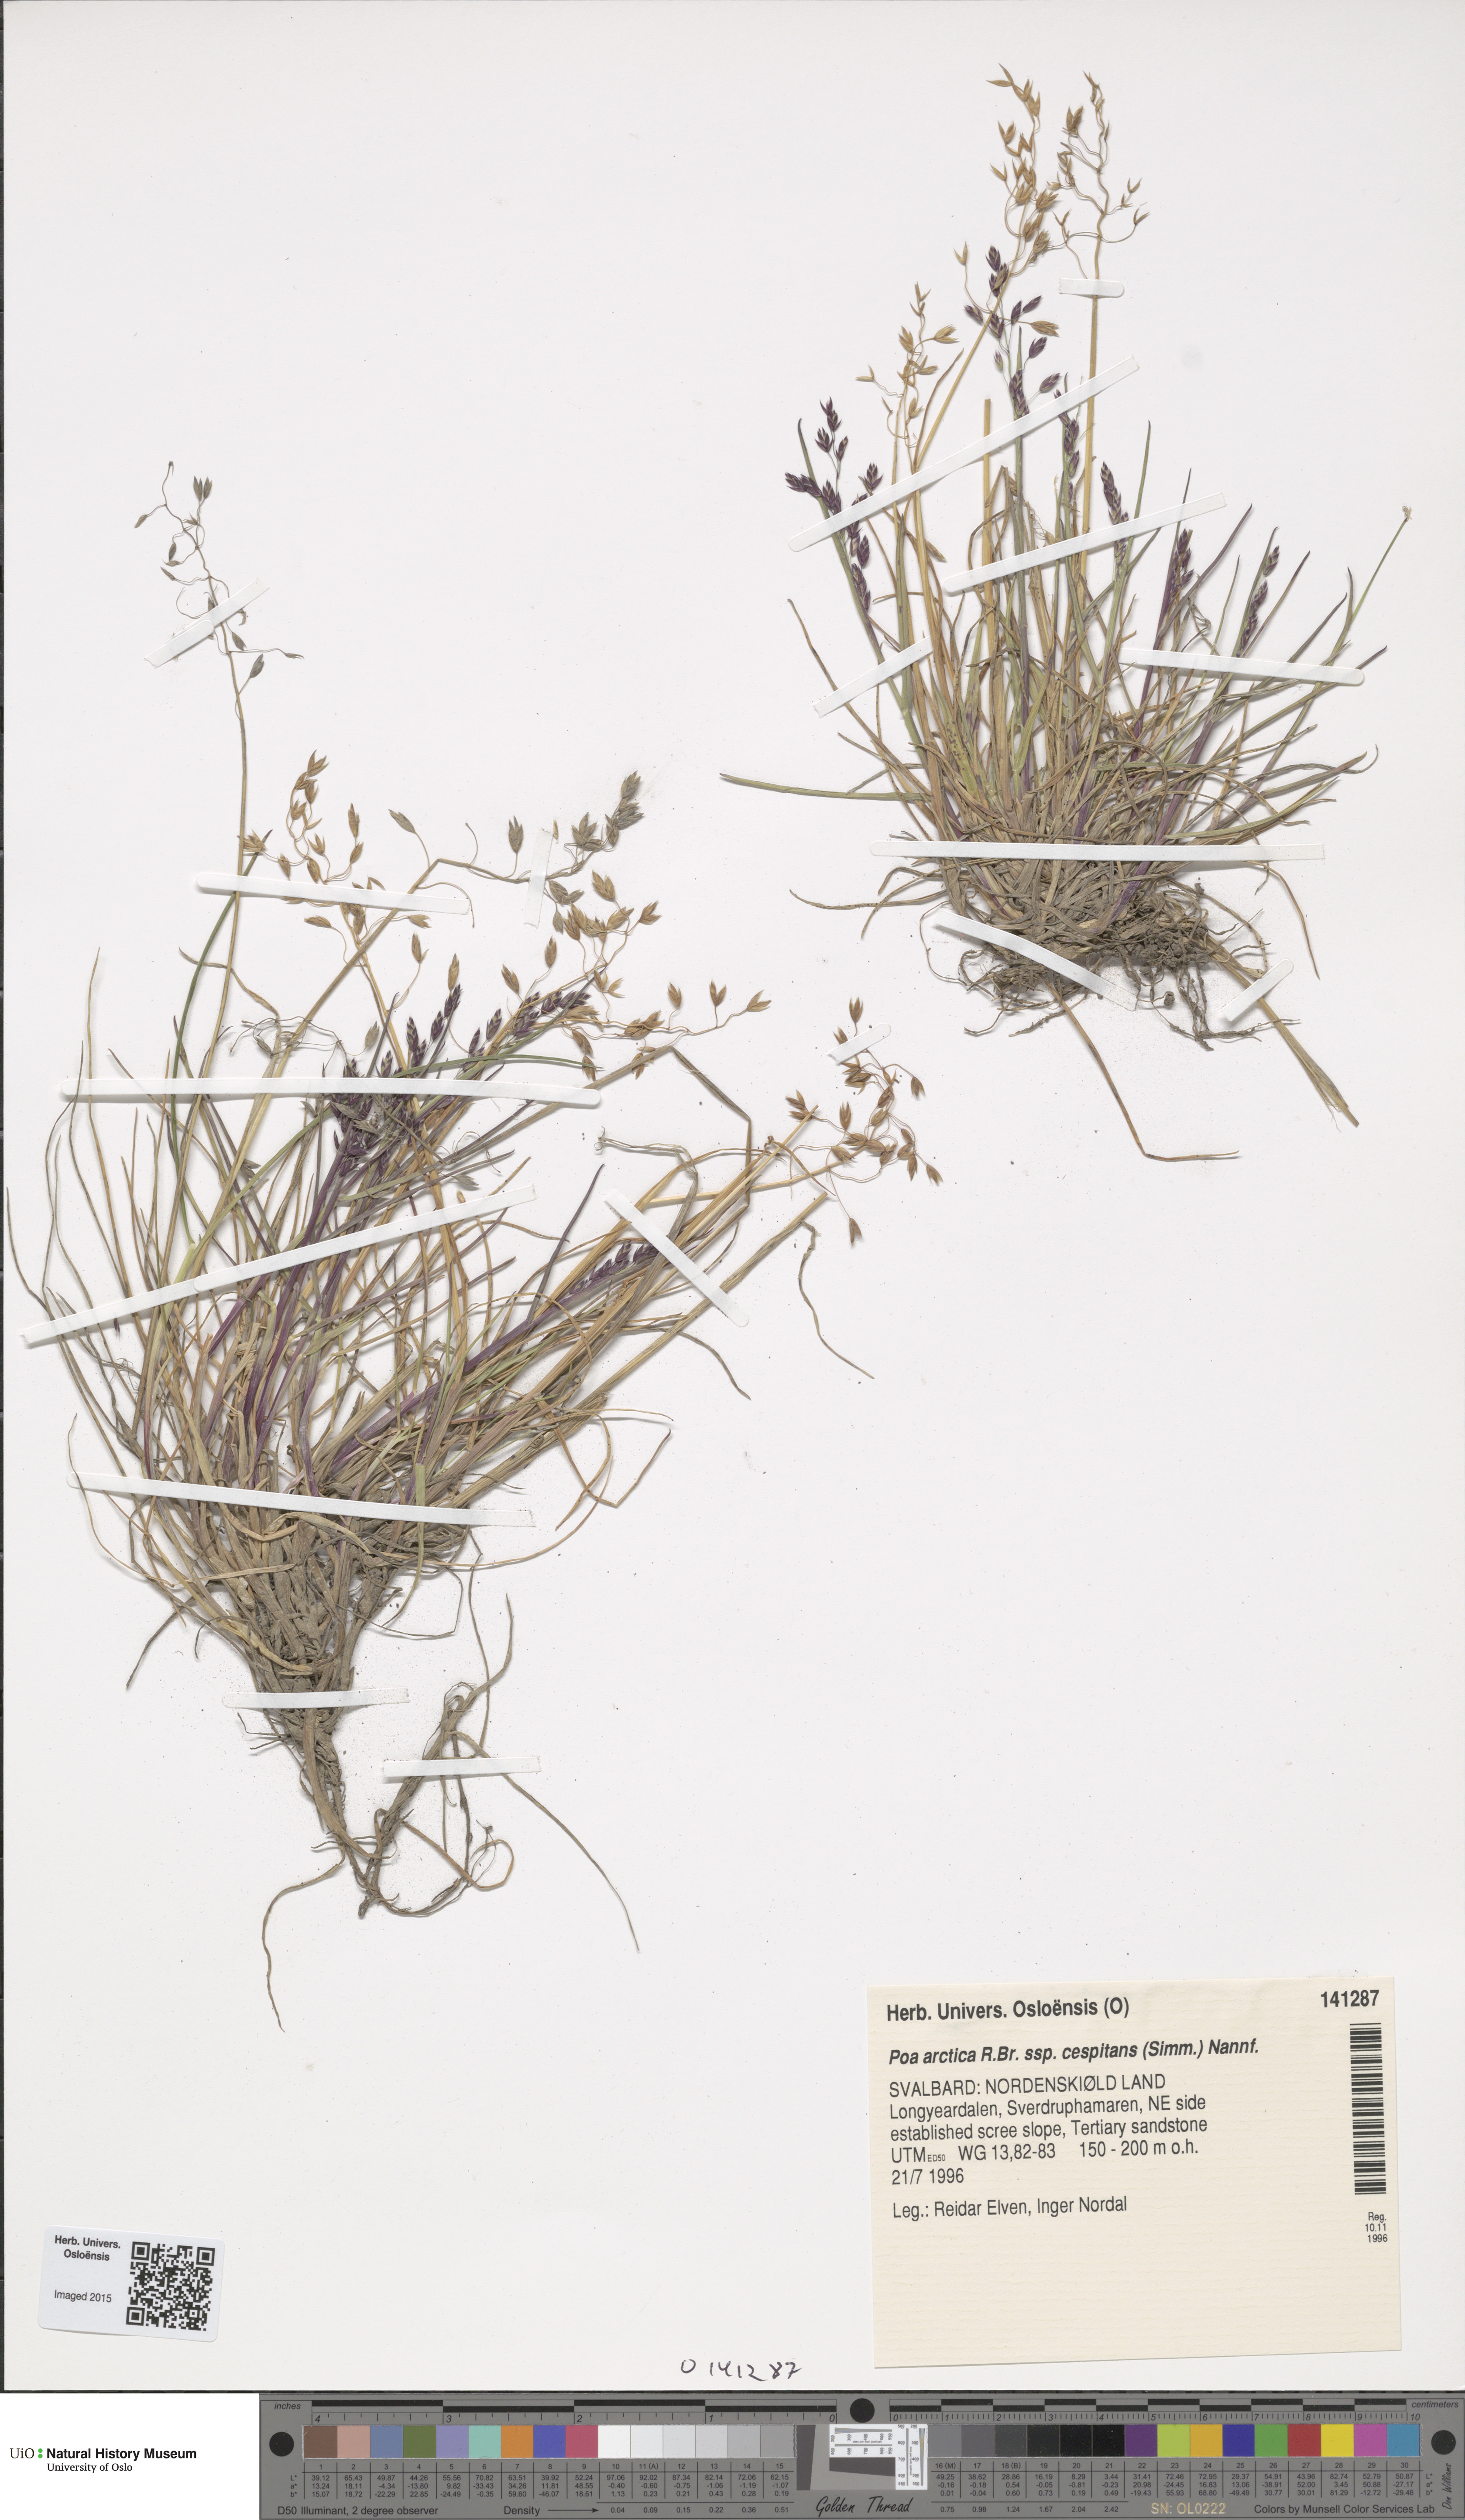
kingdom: Plantae
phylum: Tracheophyta
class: Liliopsida
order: Poales
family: Poaceae
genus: Poa
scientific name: Poa tolmatchewii
